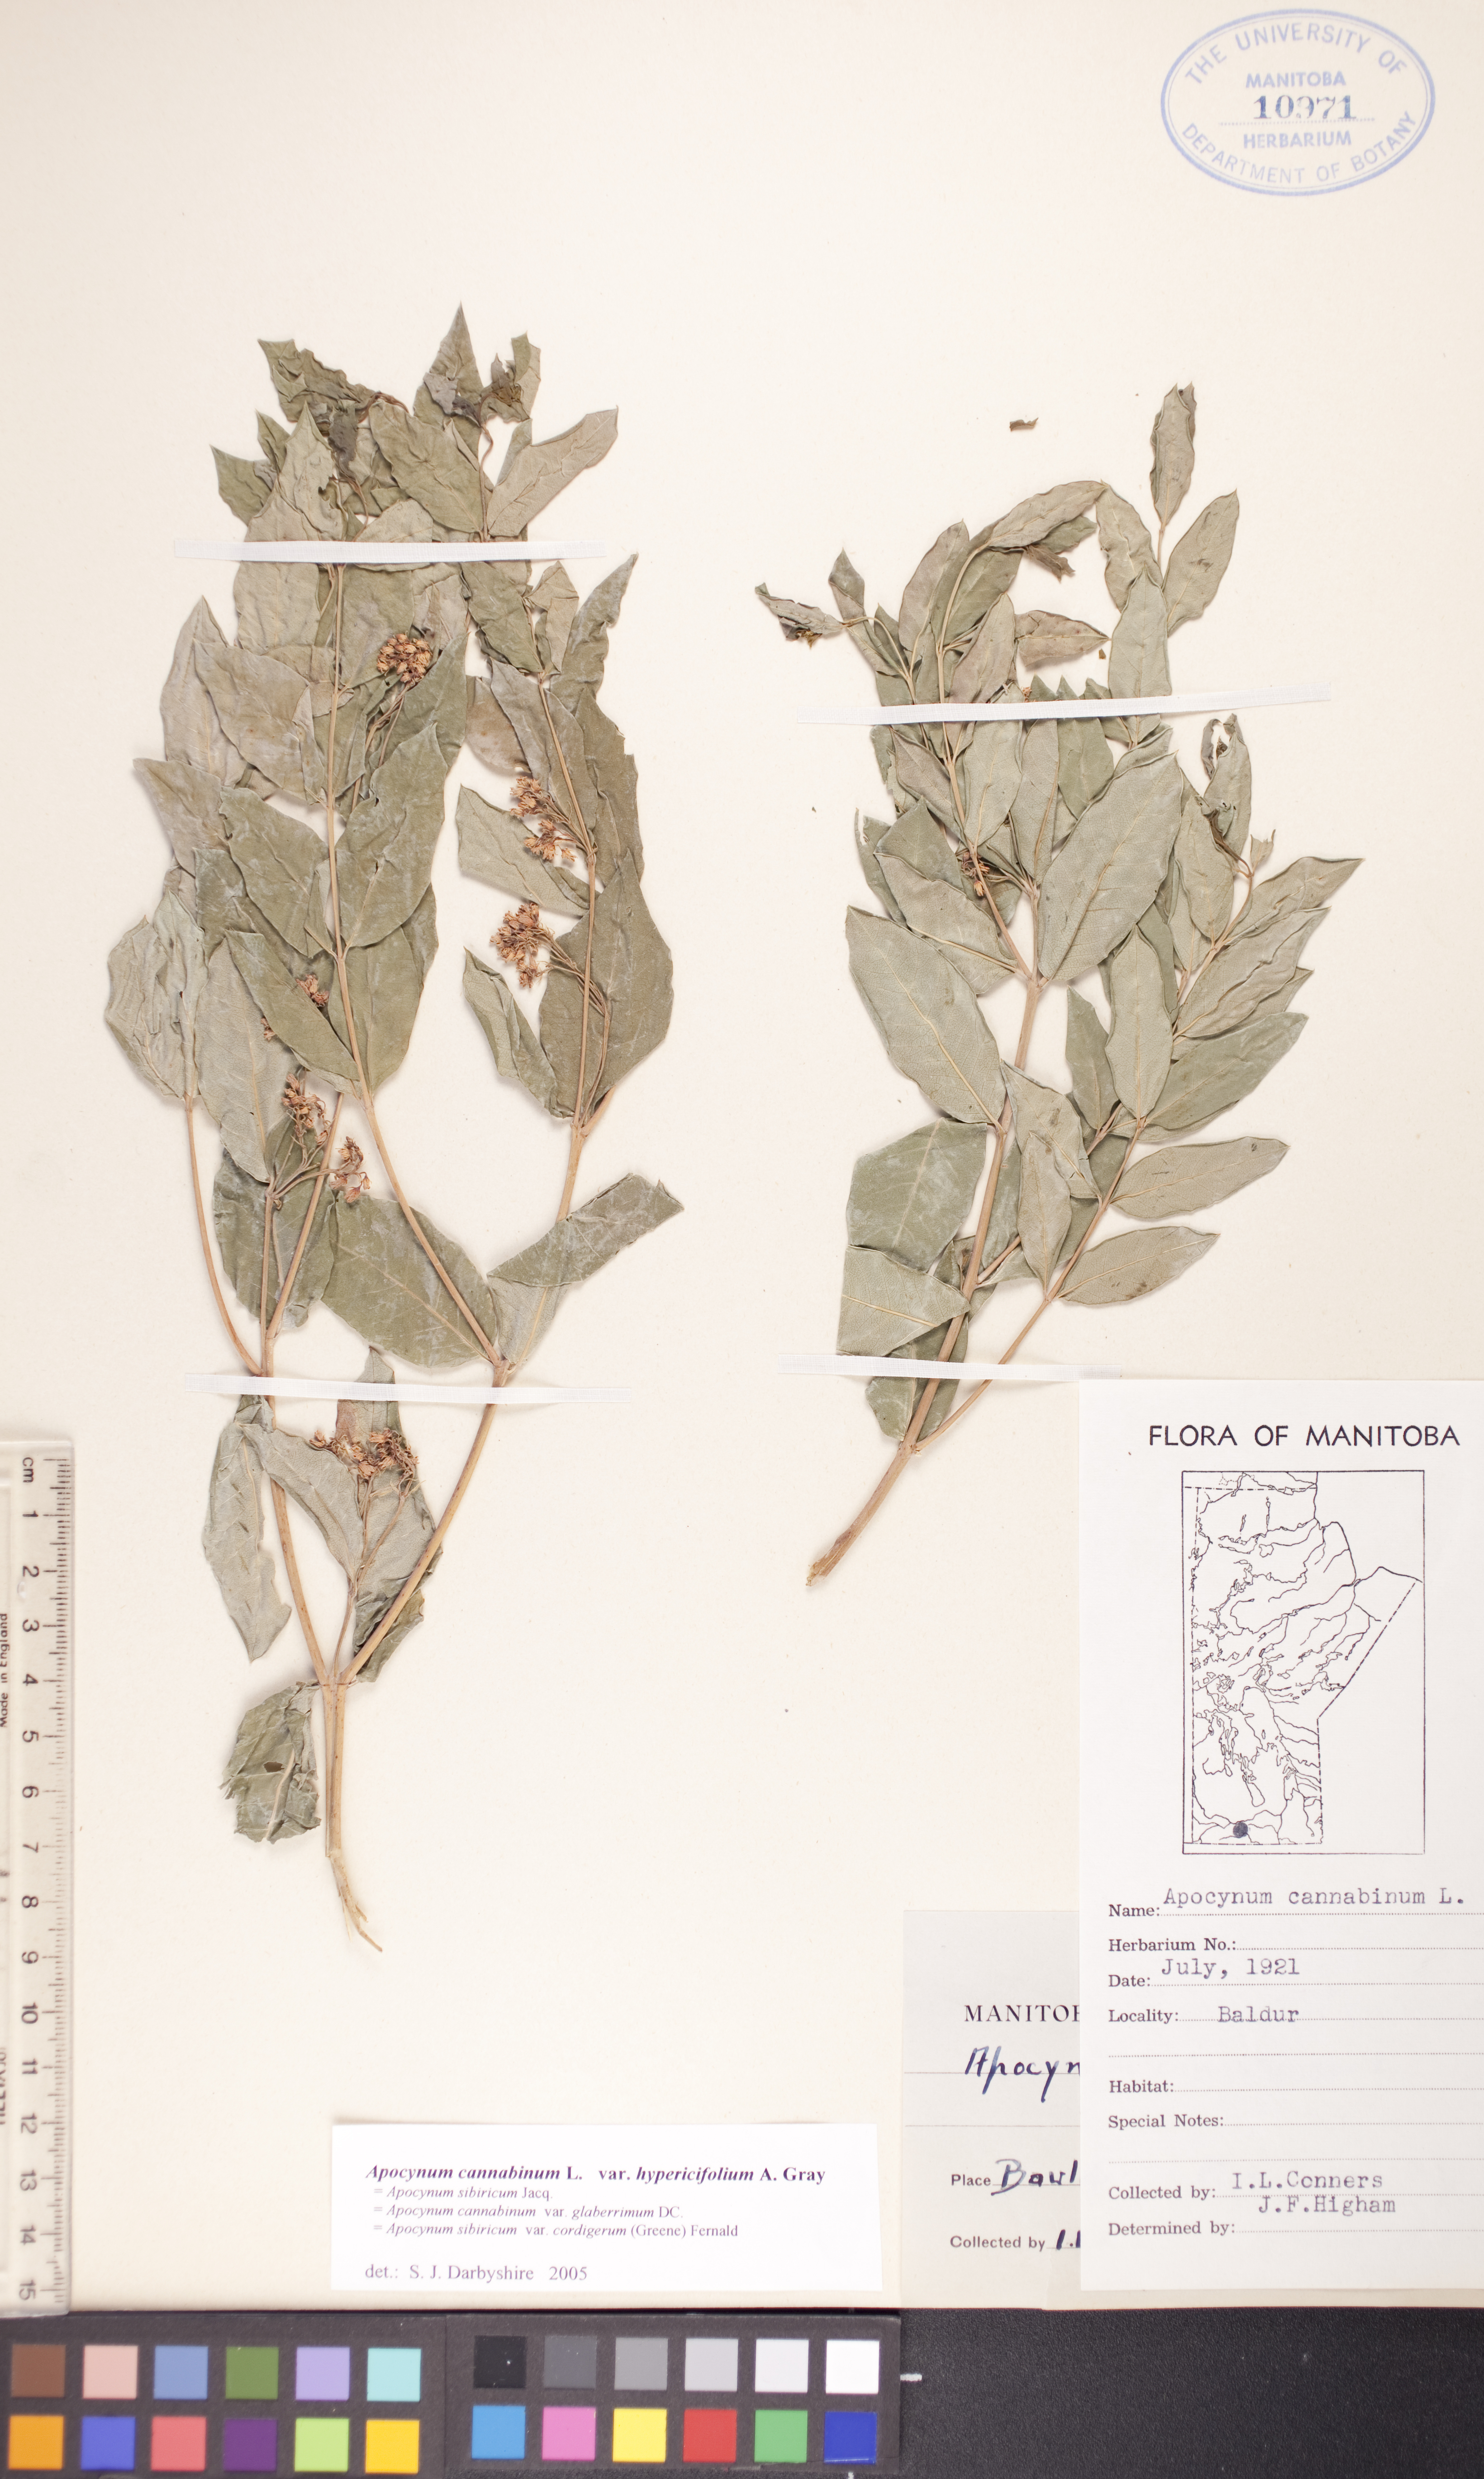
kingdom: Plantae
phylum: Tracheophyta
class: Magnoliopsida
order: Gentianales
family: Apocynaceae
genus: Apocynum
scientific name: Apocynum cannabinum
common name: Hemp dogbane
